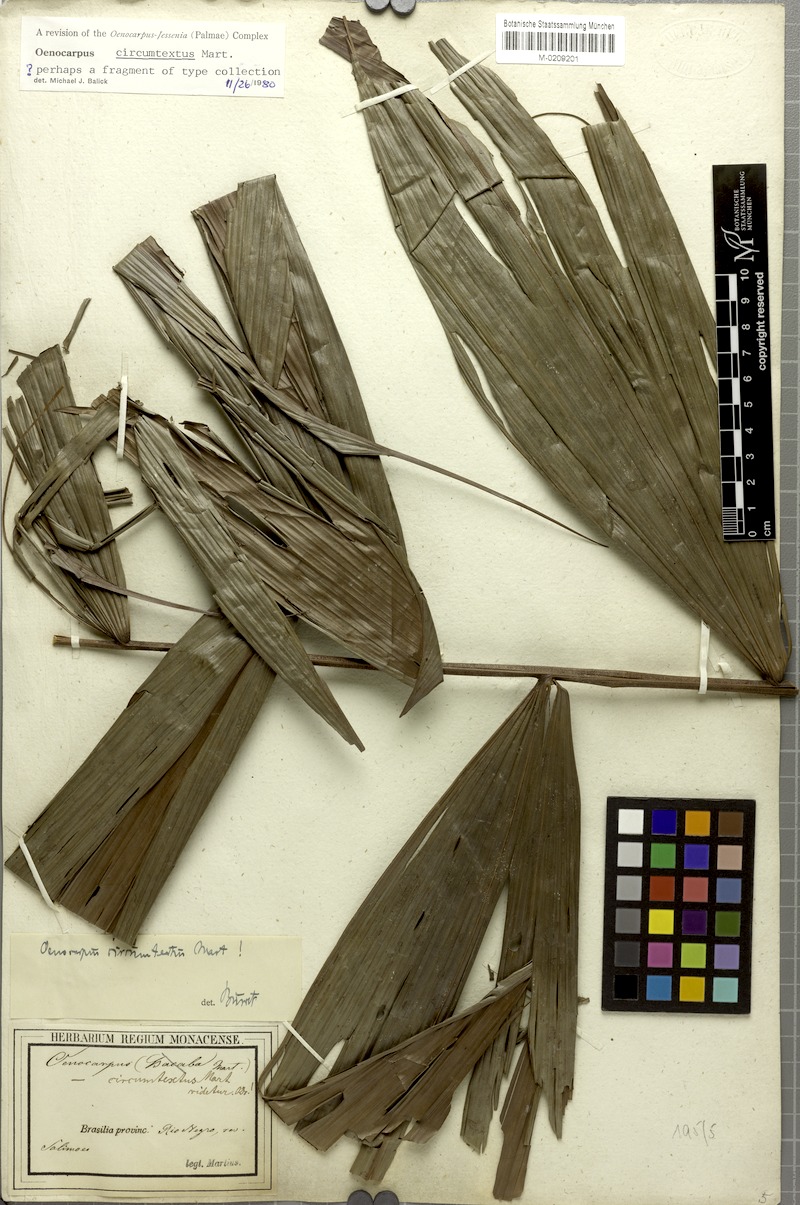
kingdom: Plantae
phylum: Tracheophyta
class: Liliopsida
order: Arecales
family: Arecaceae
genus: Oenocarpus
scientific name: Oenocarpus circumtextus
